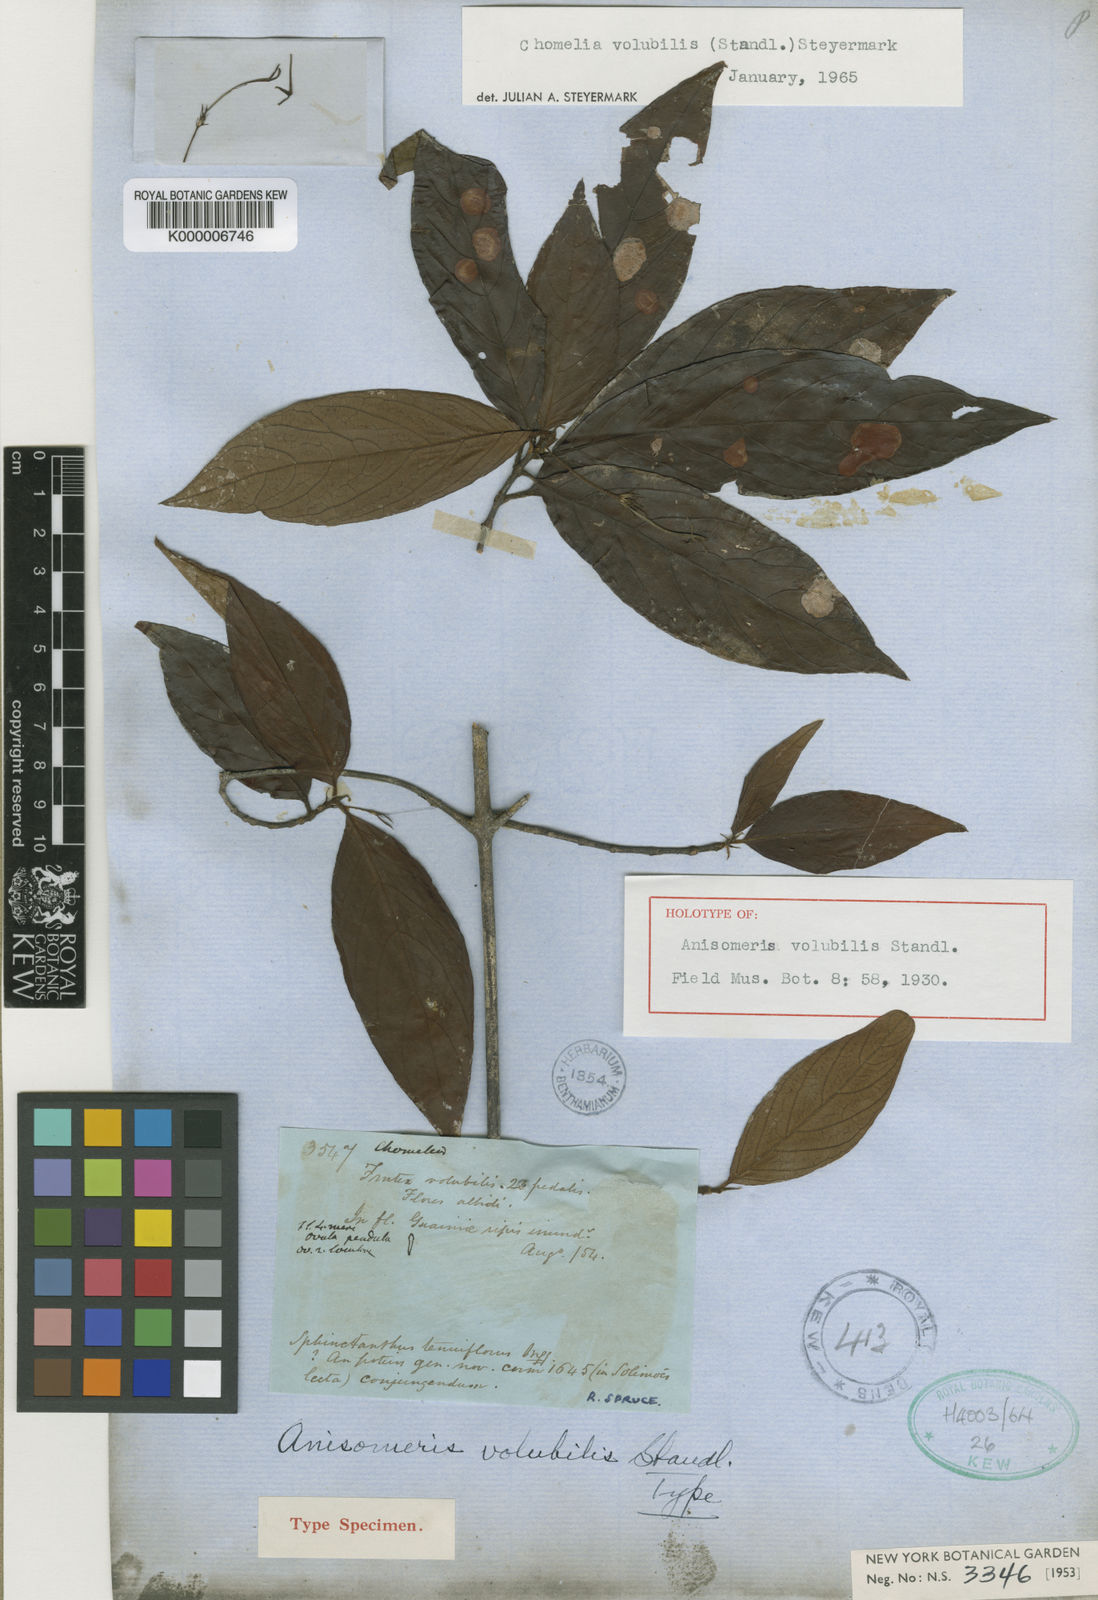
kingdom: Plantae
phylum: Tracheophyta
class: Magnoliopsida
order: Gentianales
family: Rubiaceae
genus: Chomelia
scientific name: Chomelia volubilis
